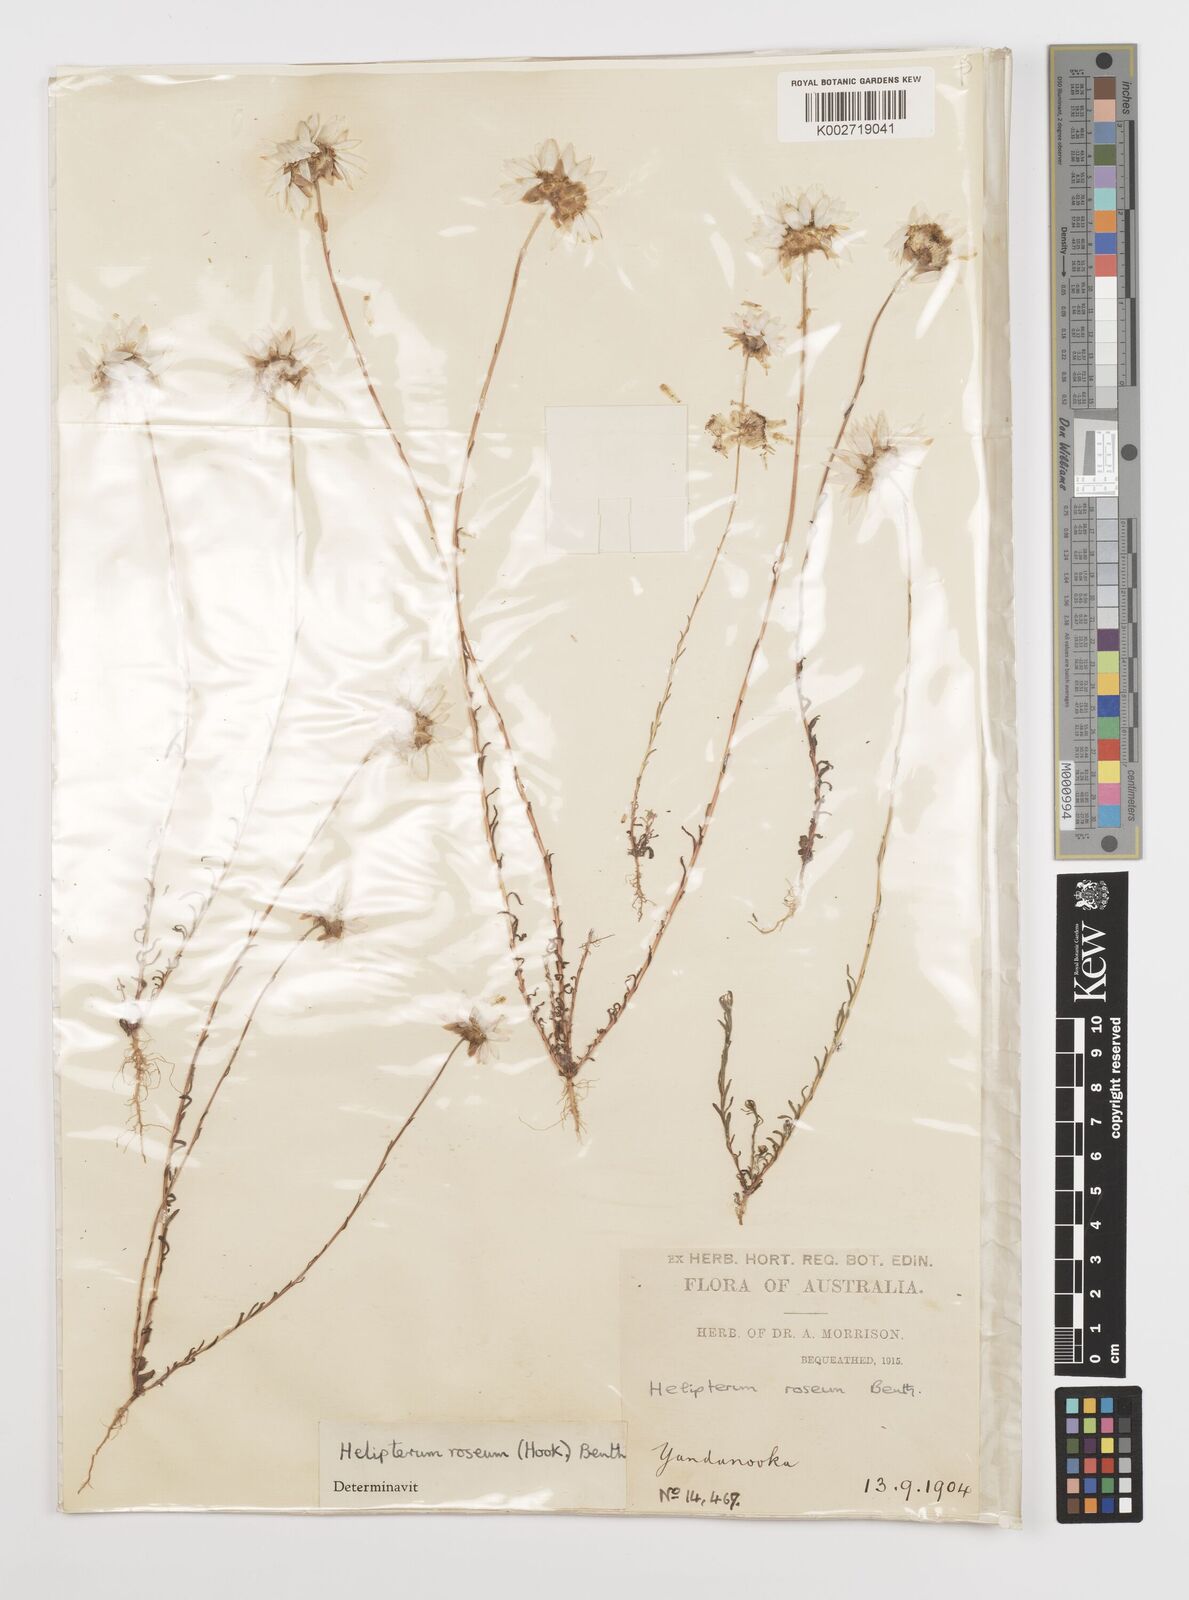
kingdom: Plantae
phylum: Tracheophyta
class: Magnoliopsida
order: Asterales
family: Asteraceae
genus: Rhodanthe
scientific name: Rhodanthe chlorocephala
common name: Rosy sunray
